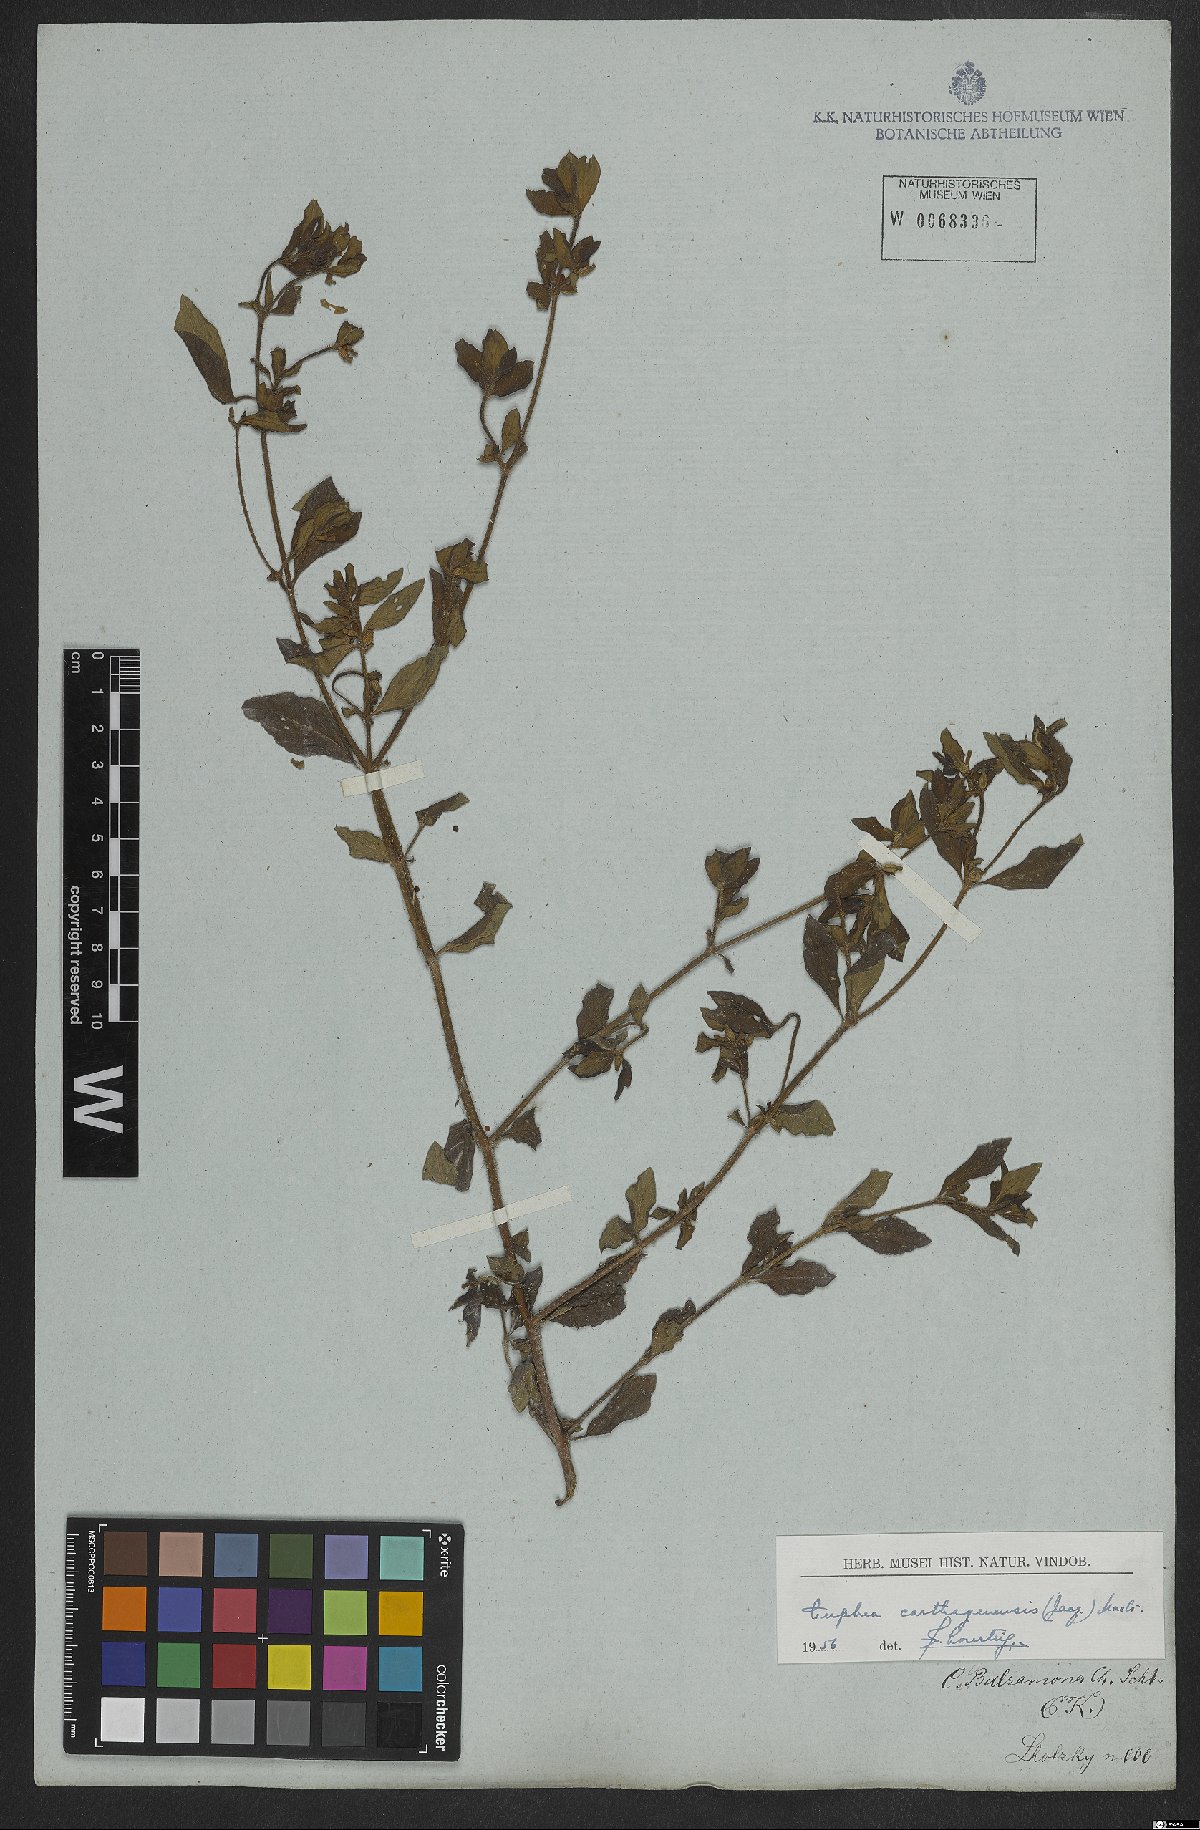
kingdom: Plantae
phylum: Tracheophyta
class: Magnoliopsida
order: Myrtales
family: Lythraceae
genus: Cuphea
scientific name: Cuphea carthagenensis
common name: Colombian waxweed
